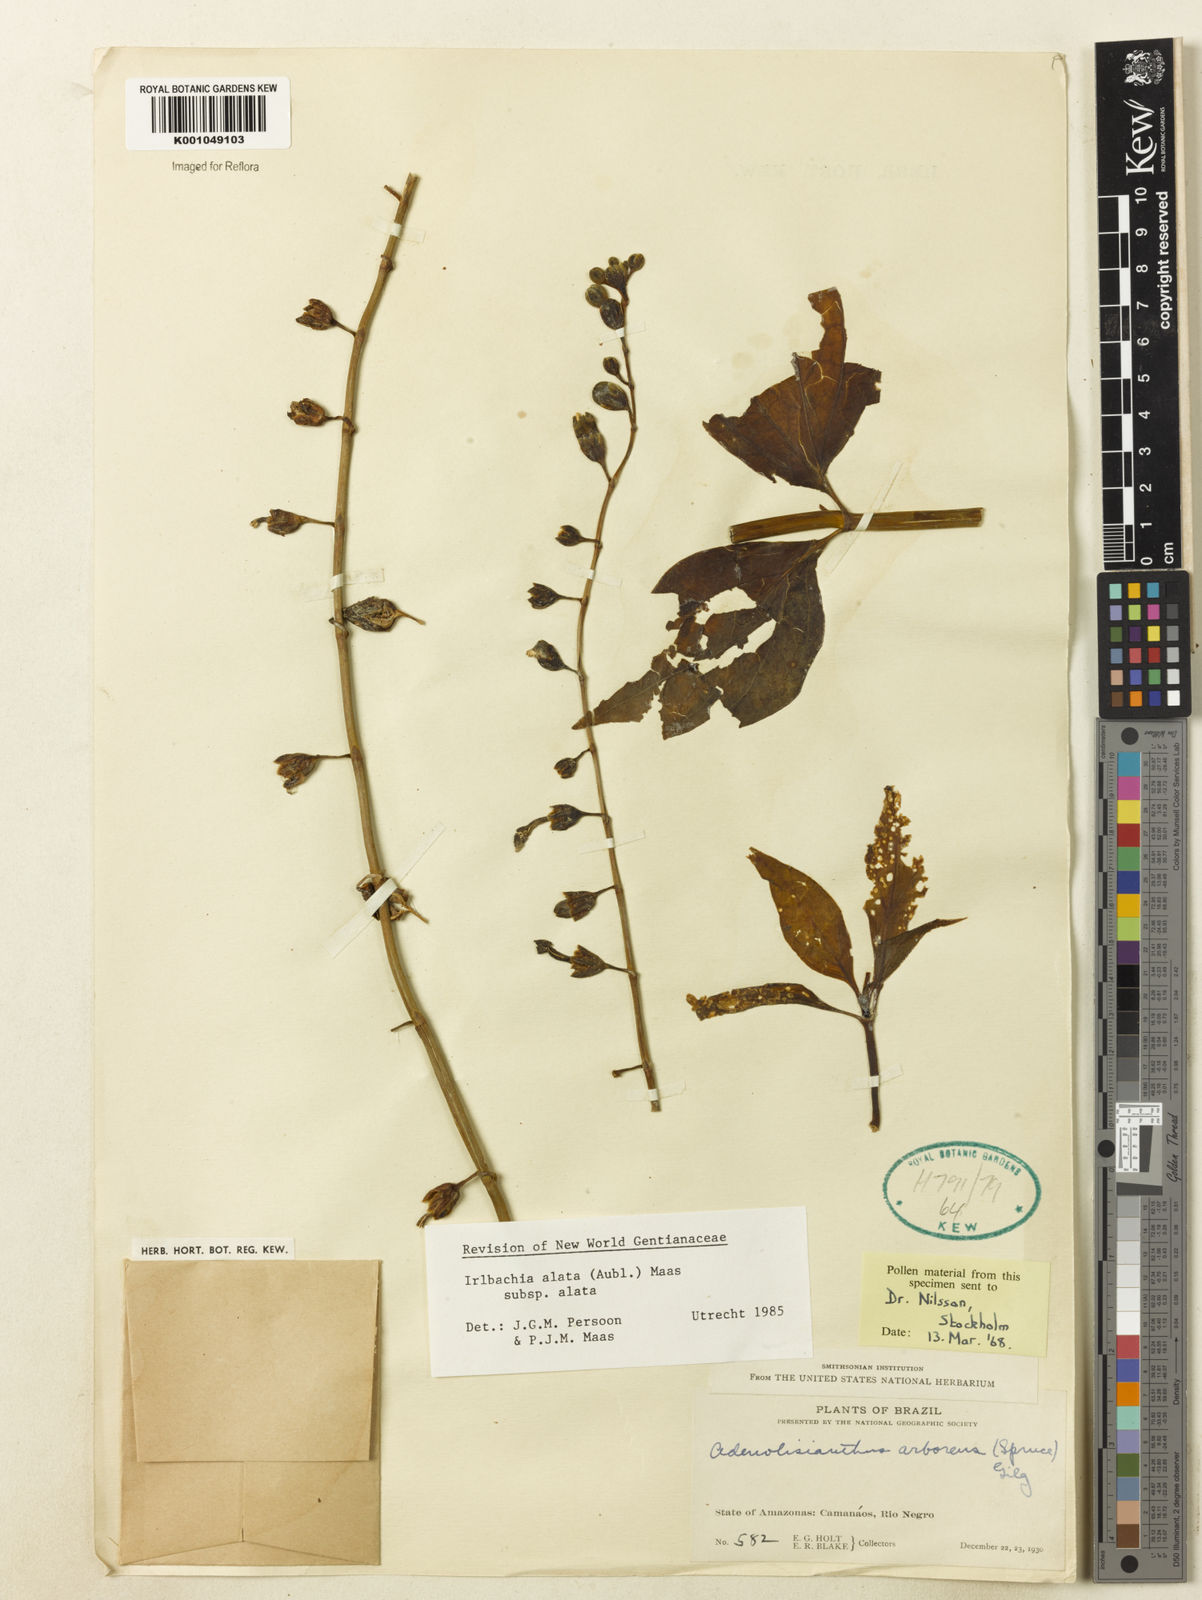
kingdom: Plantae
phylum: Tracheophyta
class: Magnoliopsida
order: Gentianales
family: Gentianaceae
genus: Chelonanthus
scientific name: Chelonanthus alatus
